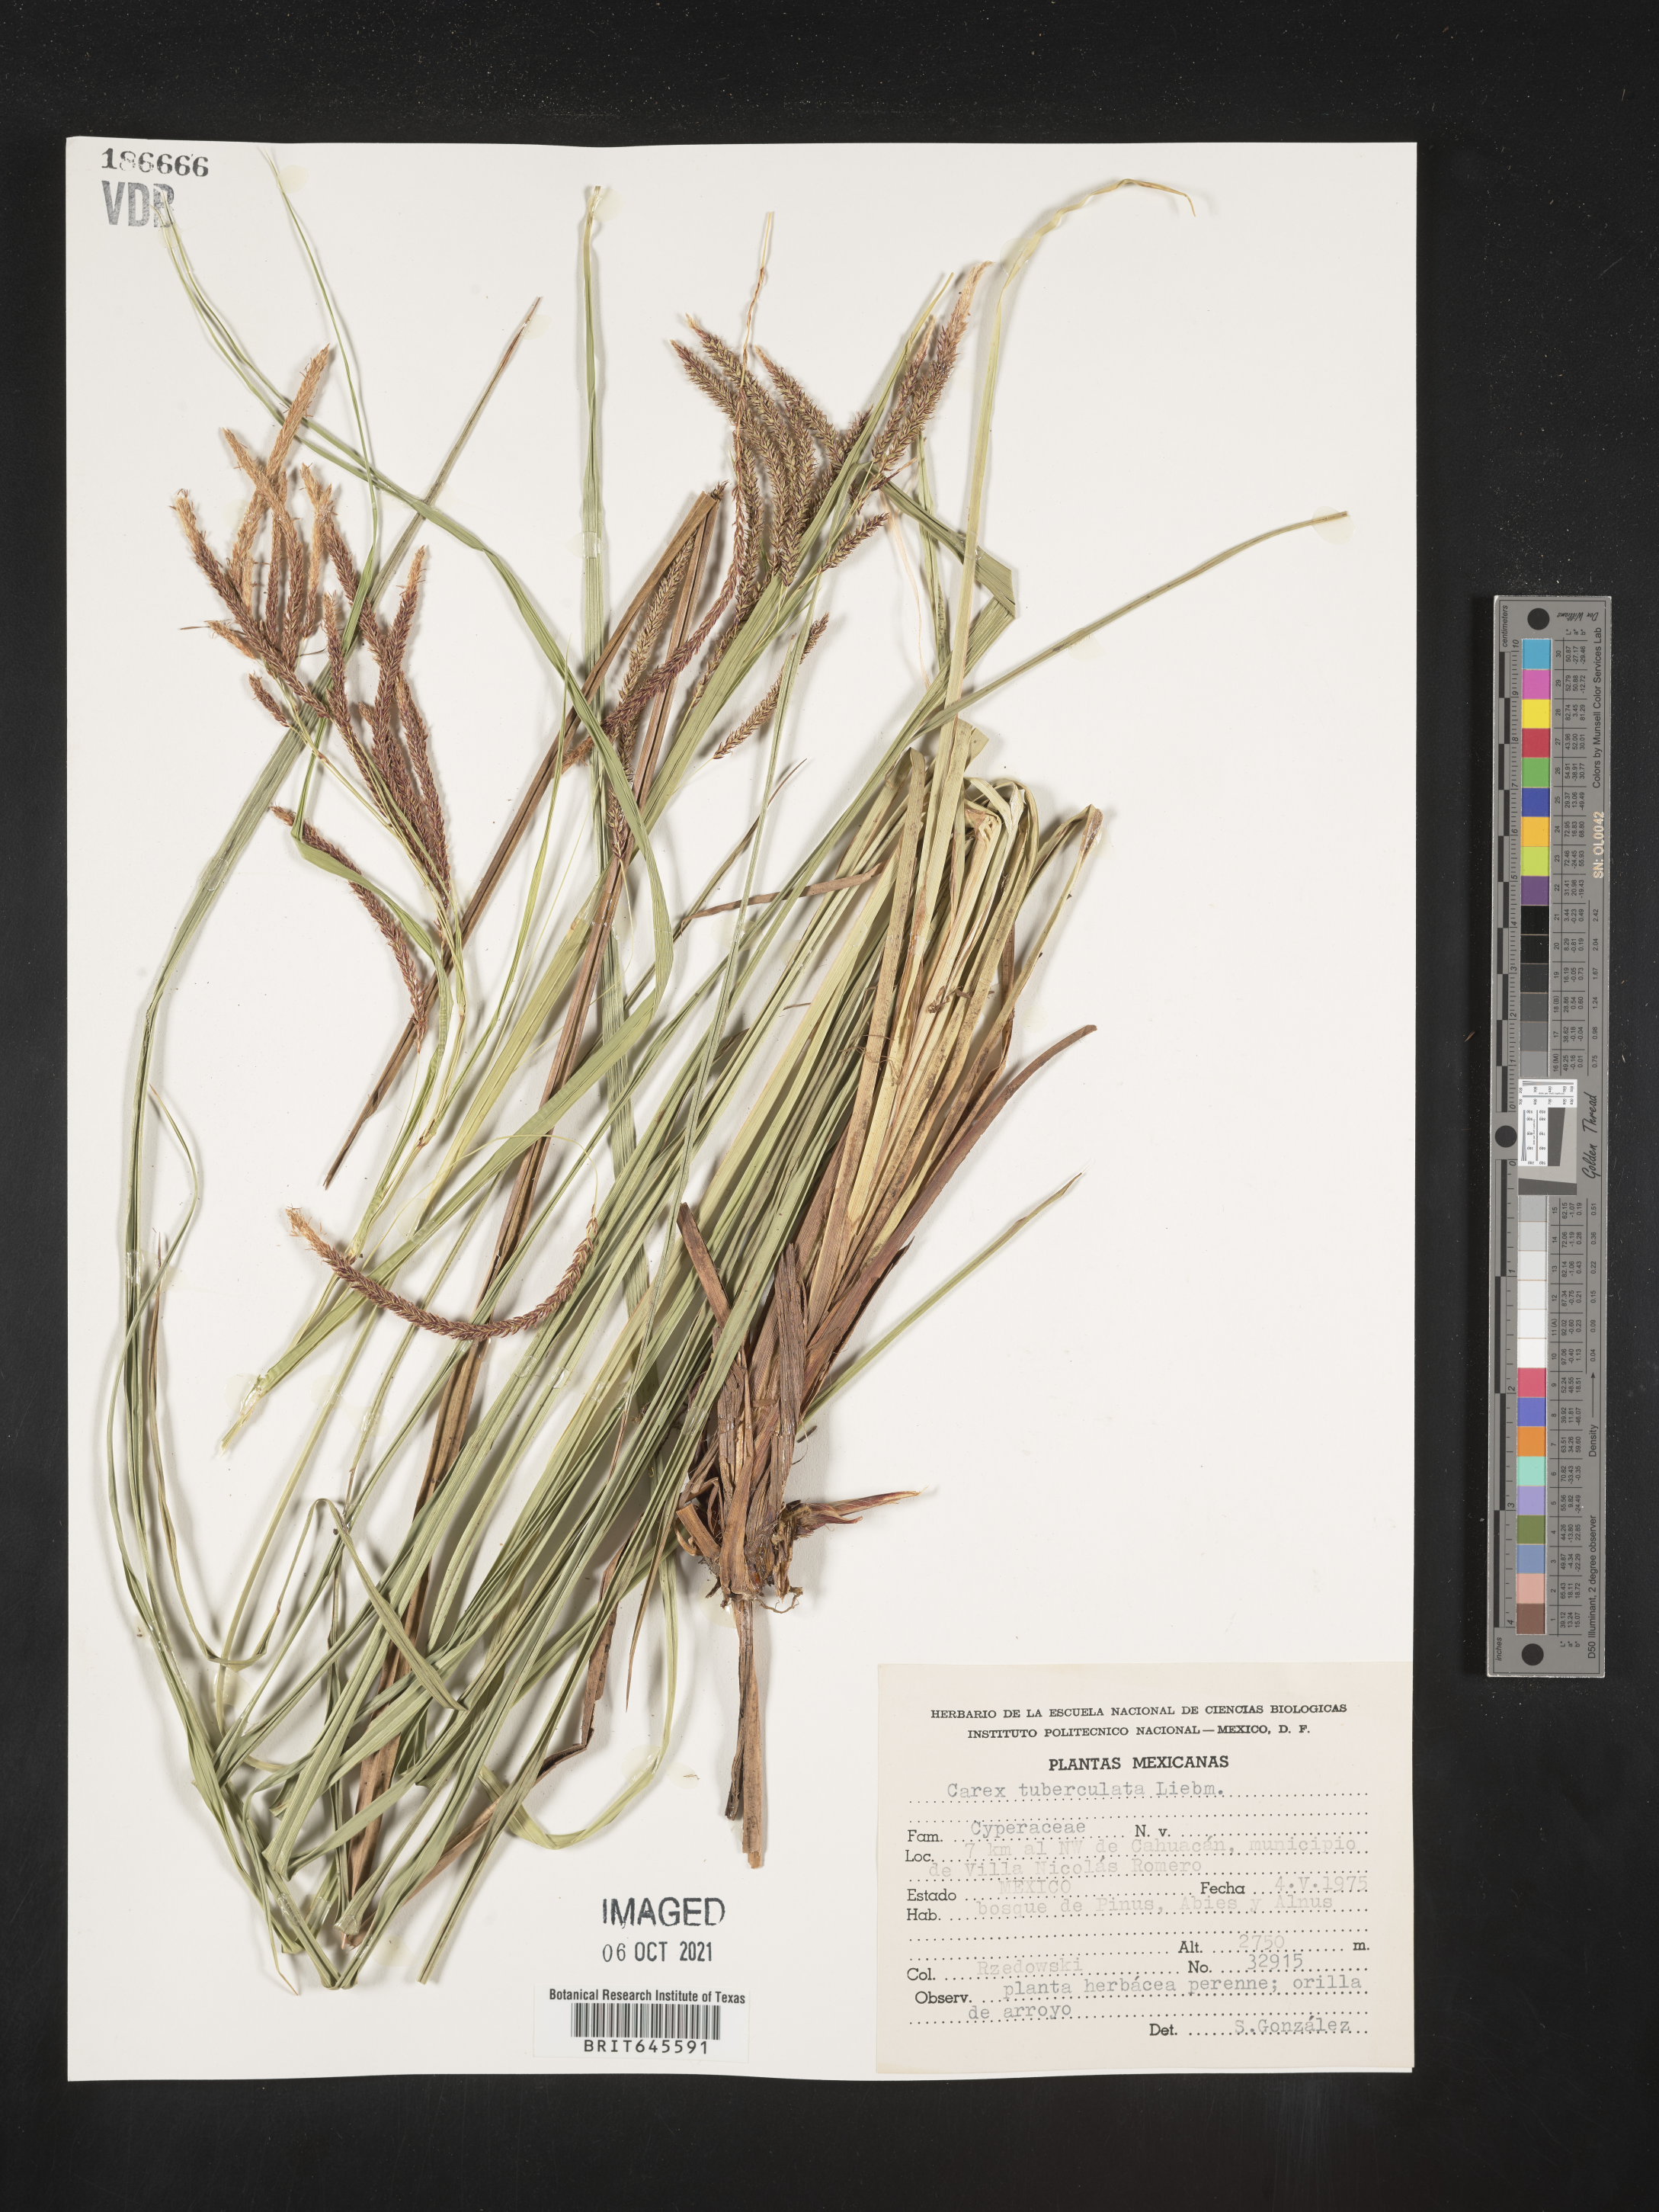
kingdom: Plantae
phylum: Tracheophyta
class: Liliopsida
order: Poales
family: Cyperaceae
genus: Carex
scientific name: Carex
